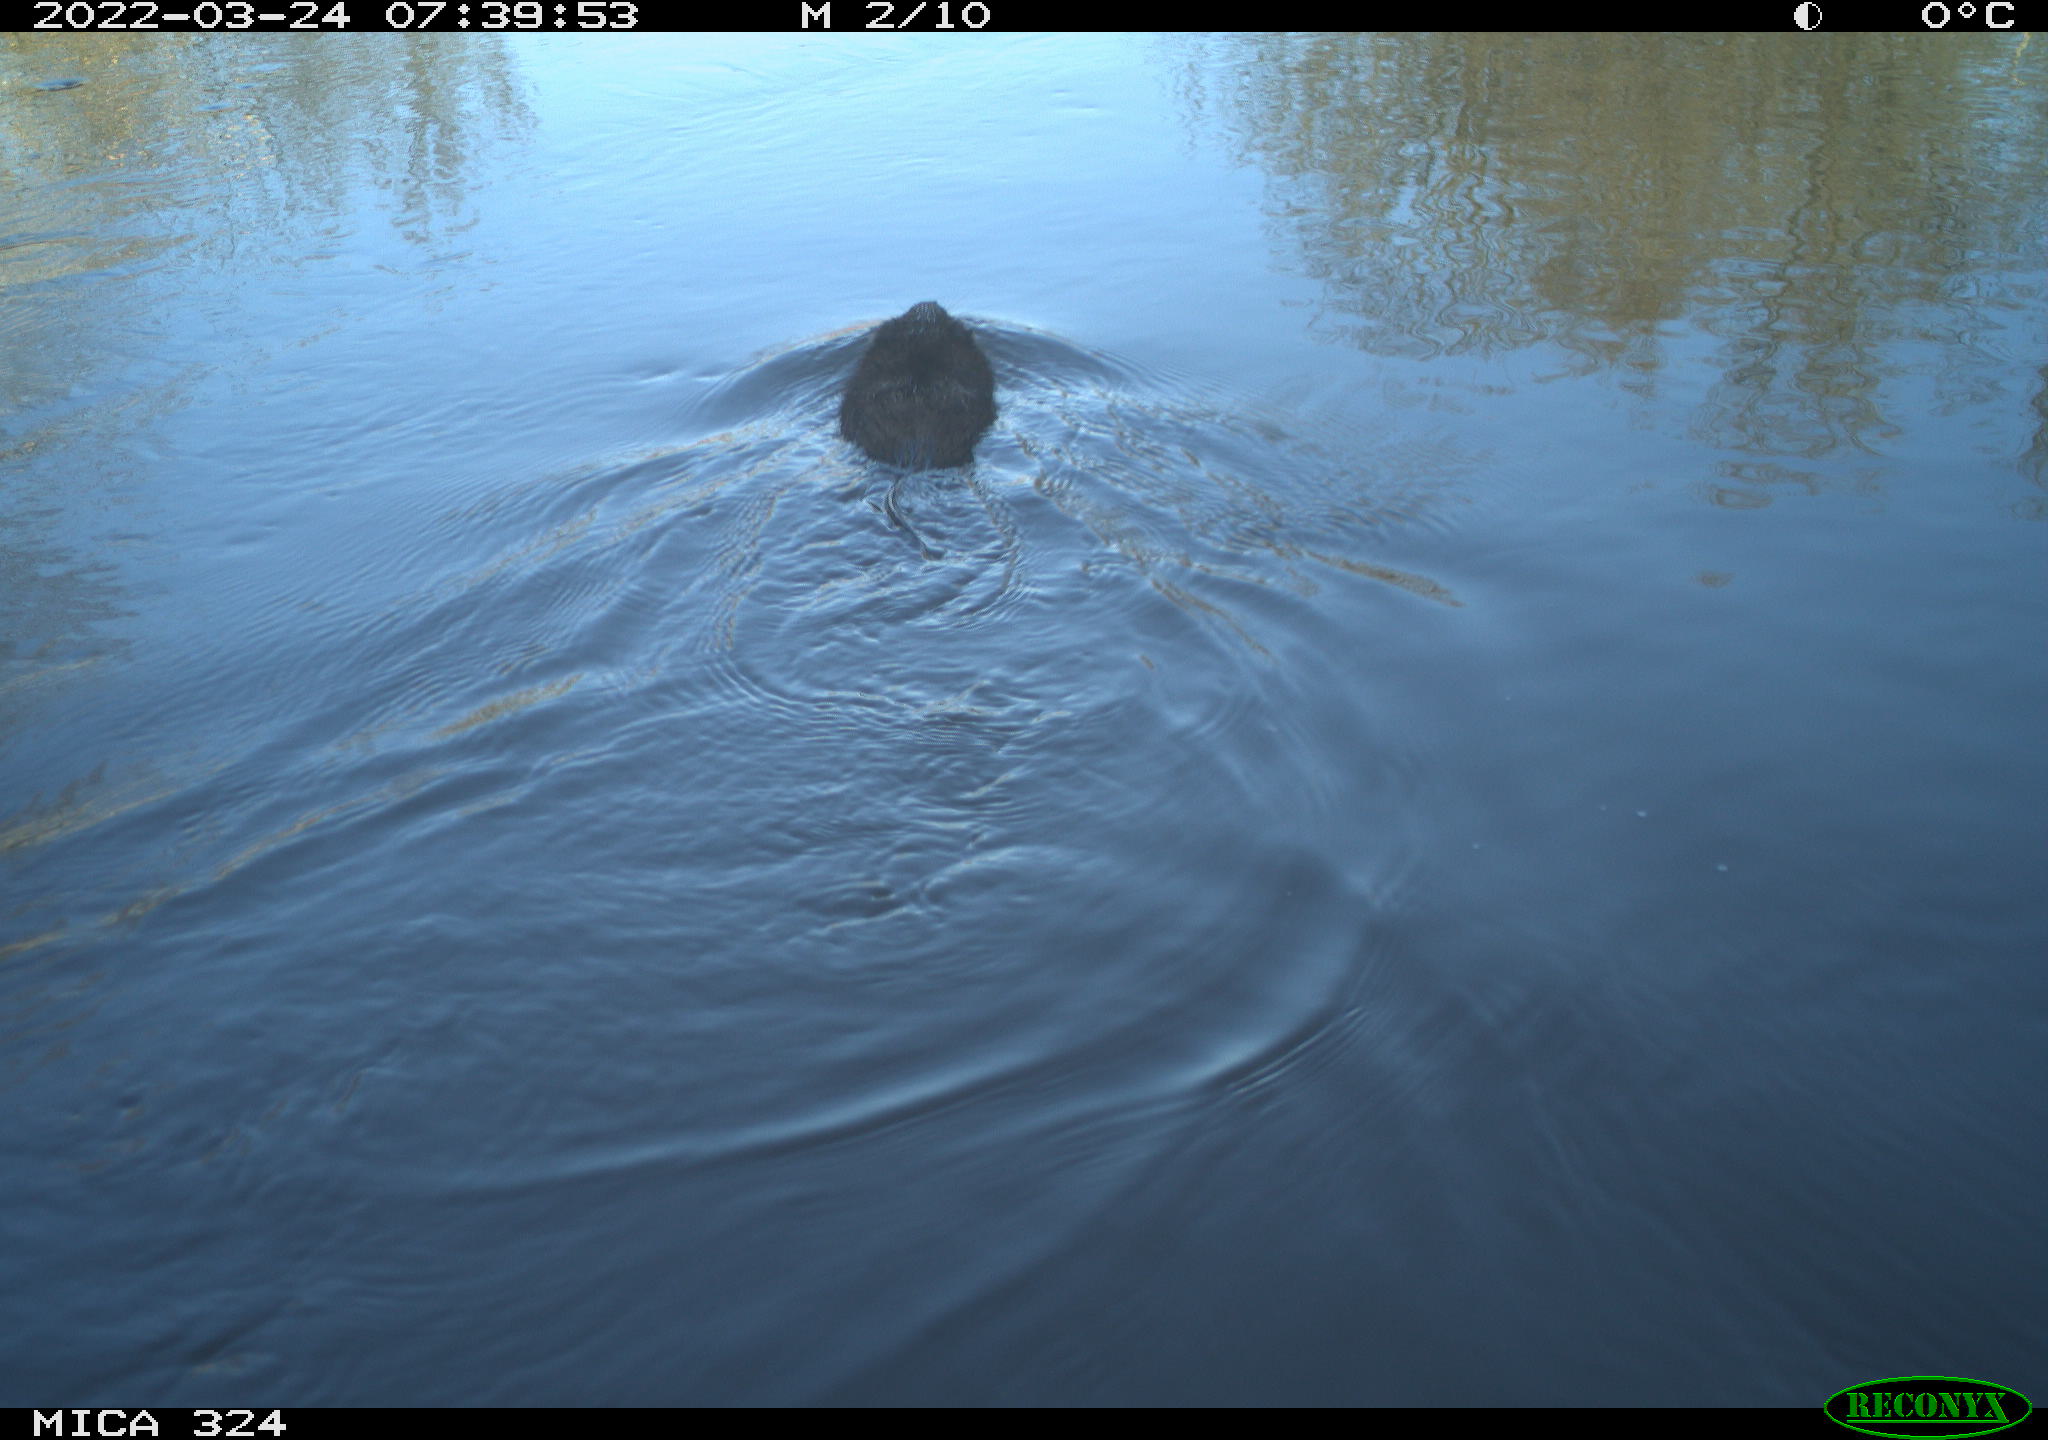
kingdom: Animalia
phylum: Chordata
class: Mammalia
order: Rodentia
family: Cricetidae
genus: Ondatra
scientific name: Ondatra zibethicus
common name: Muskrat
